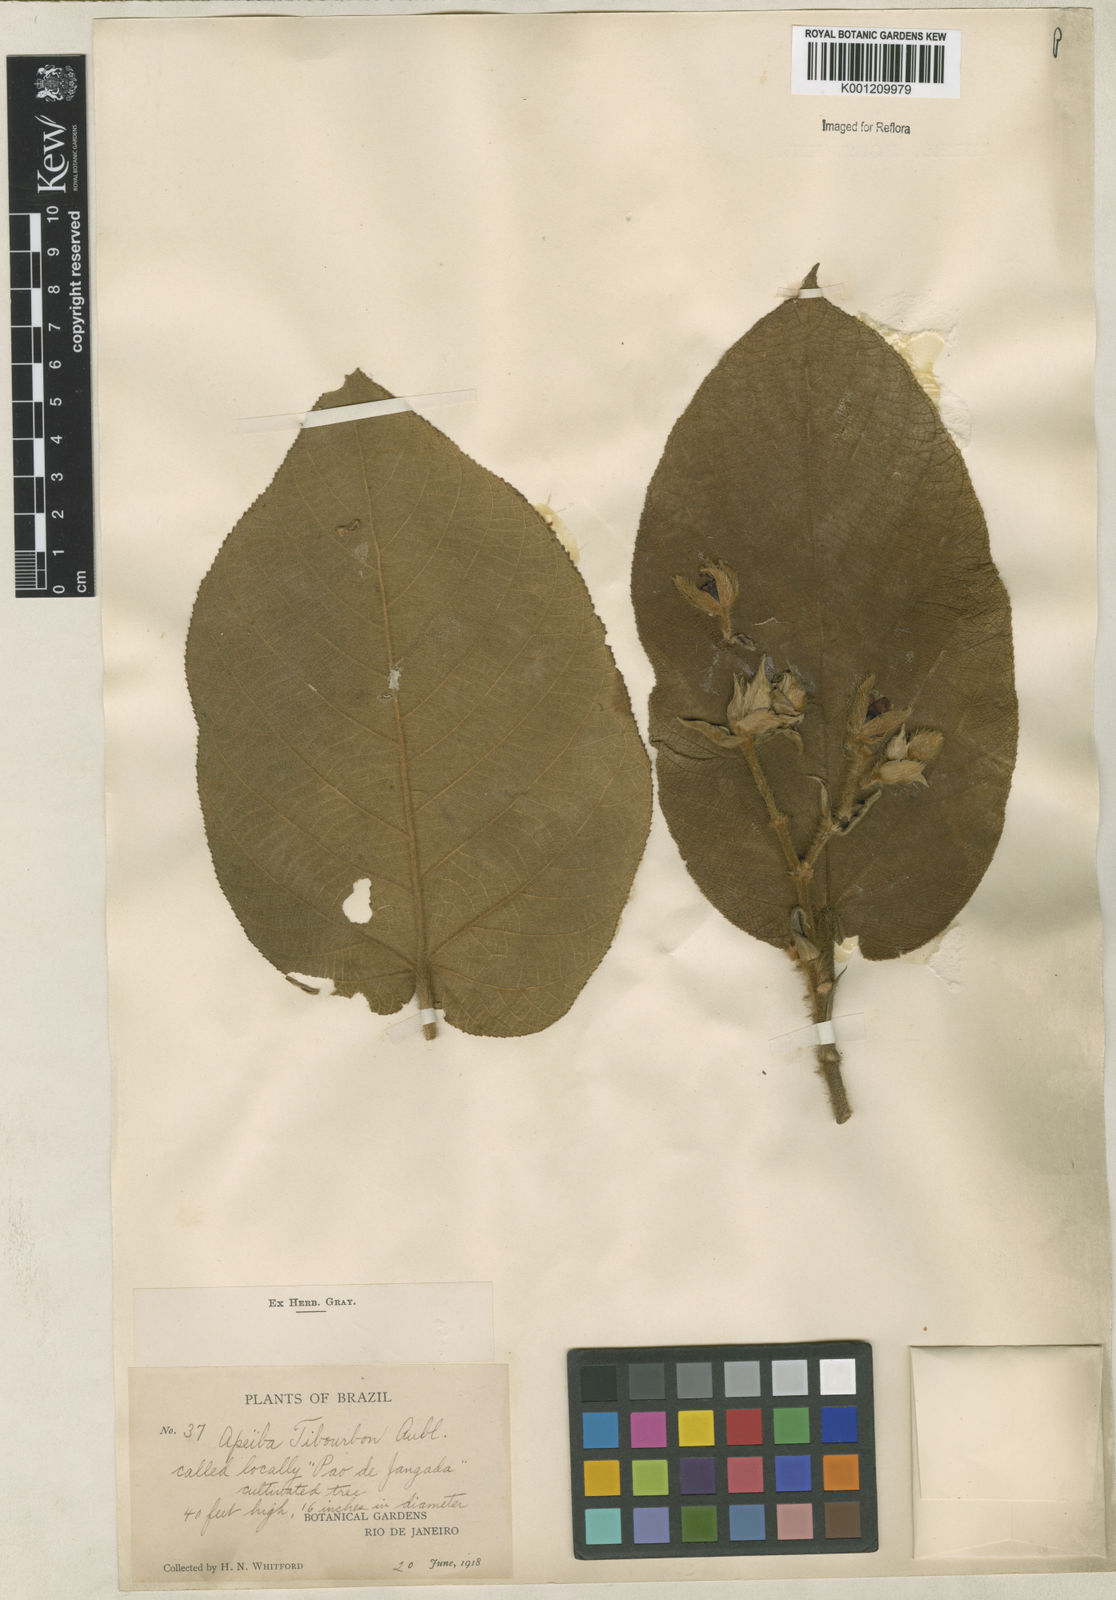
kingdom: Plantae
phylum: Tracheophyta
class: Magnoliopsida
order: Malvales
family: Malvaceae
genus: Apeiba
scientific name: Apeiba tibourbou
